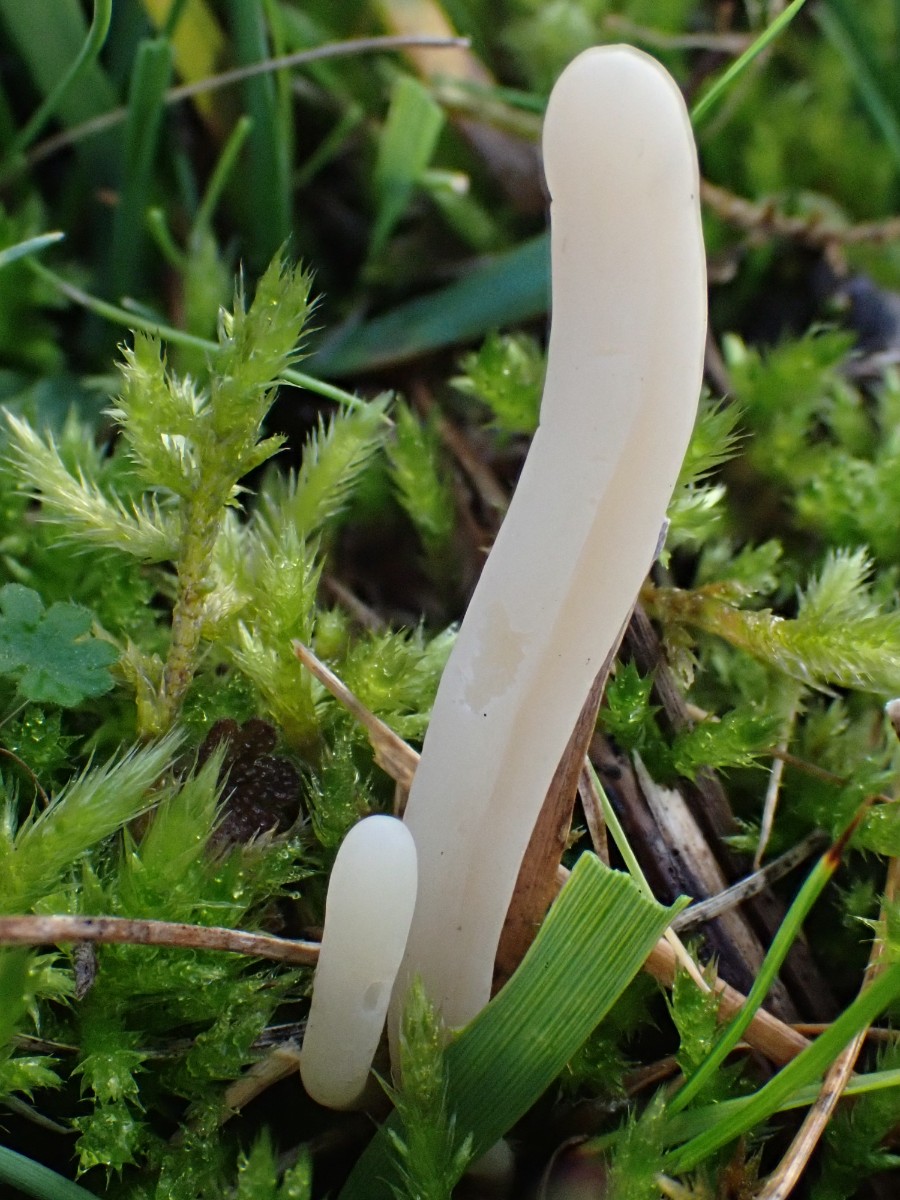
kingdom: Fungi
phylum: Basidiomycota
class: Agaricomycetes
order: Agaricales
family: Clavariaceae
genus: Clavaria
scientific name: Clavaria tenuipes
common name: isabellafarvet køllesvamp
